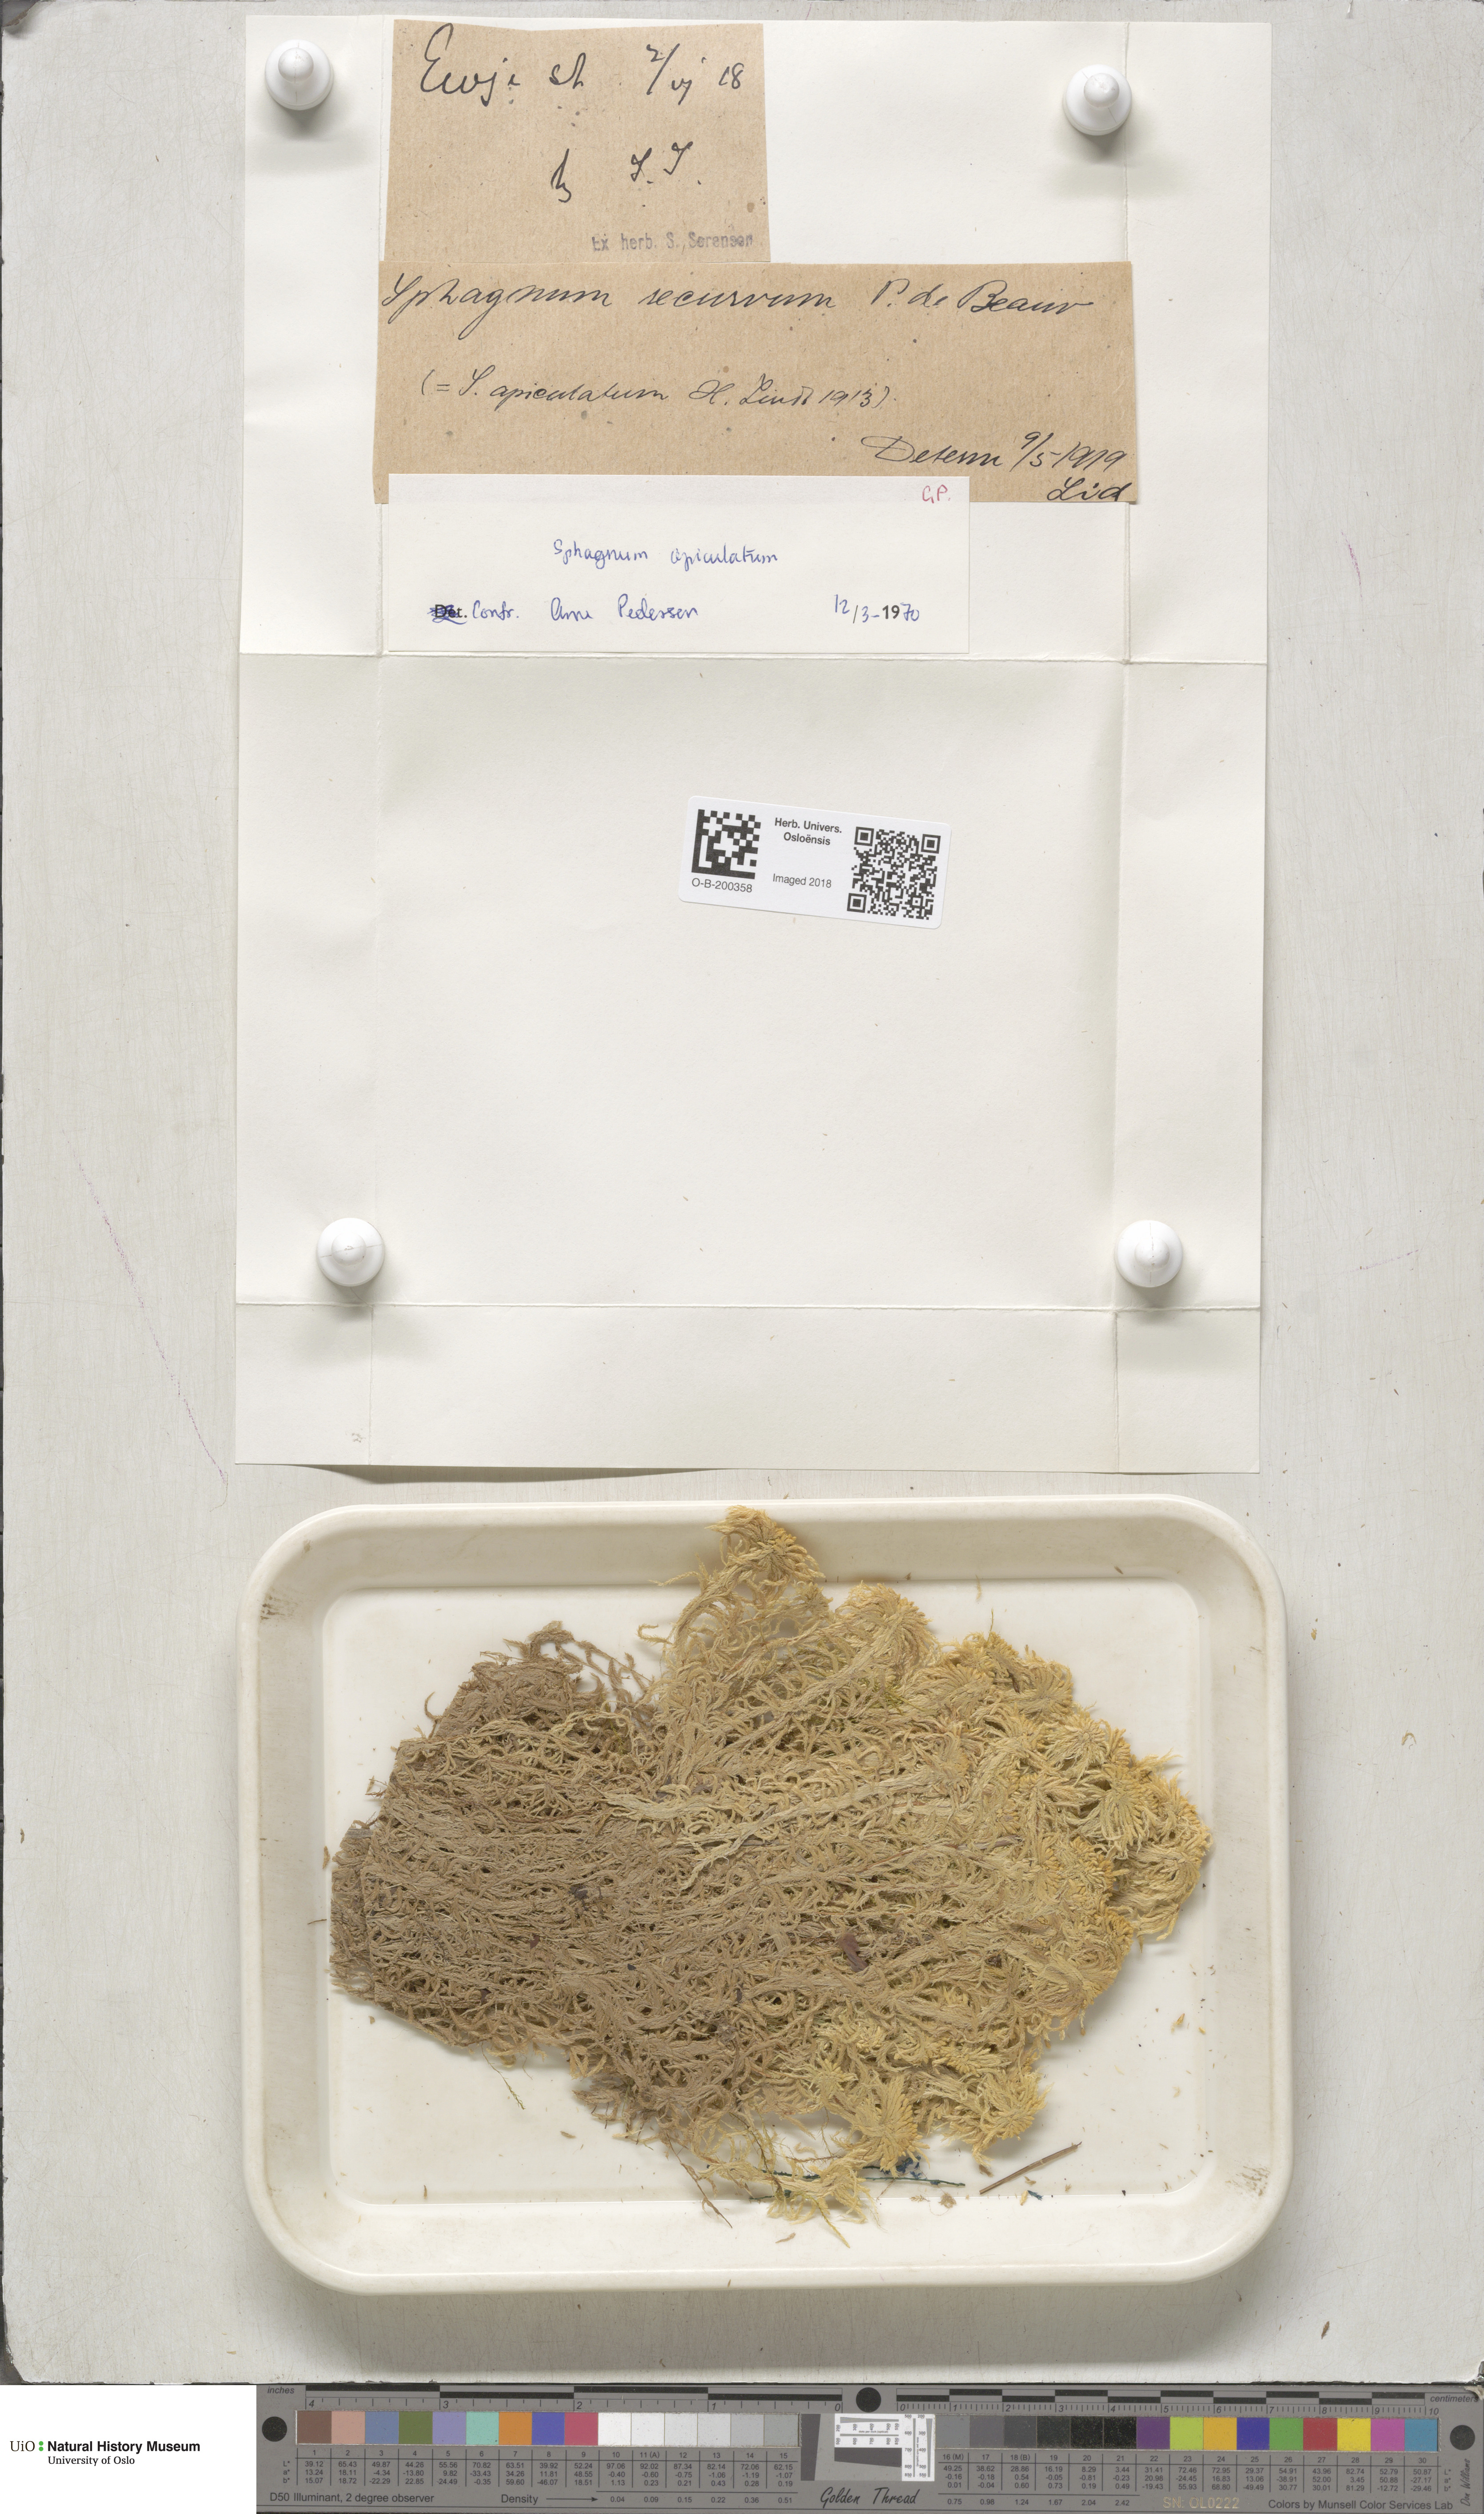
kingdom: Plantae
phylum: Bryophyta
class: Sphagnopsida
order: Sphagnales
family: Sphagnaceae
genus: Sphagnum
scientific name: Sphagnum fallax
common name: Flat-top peat moss
